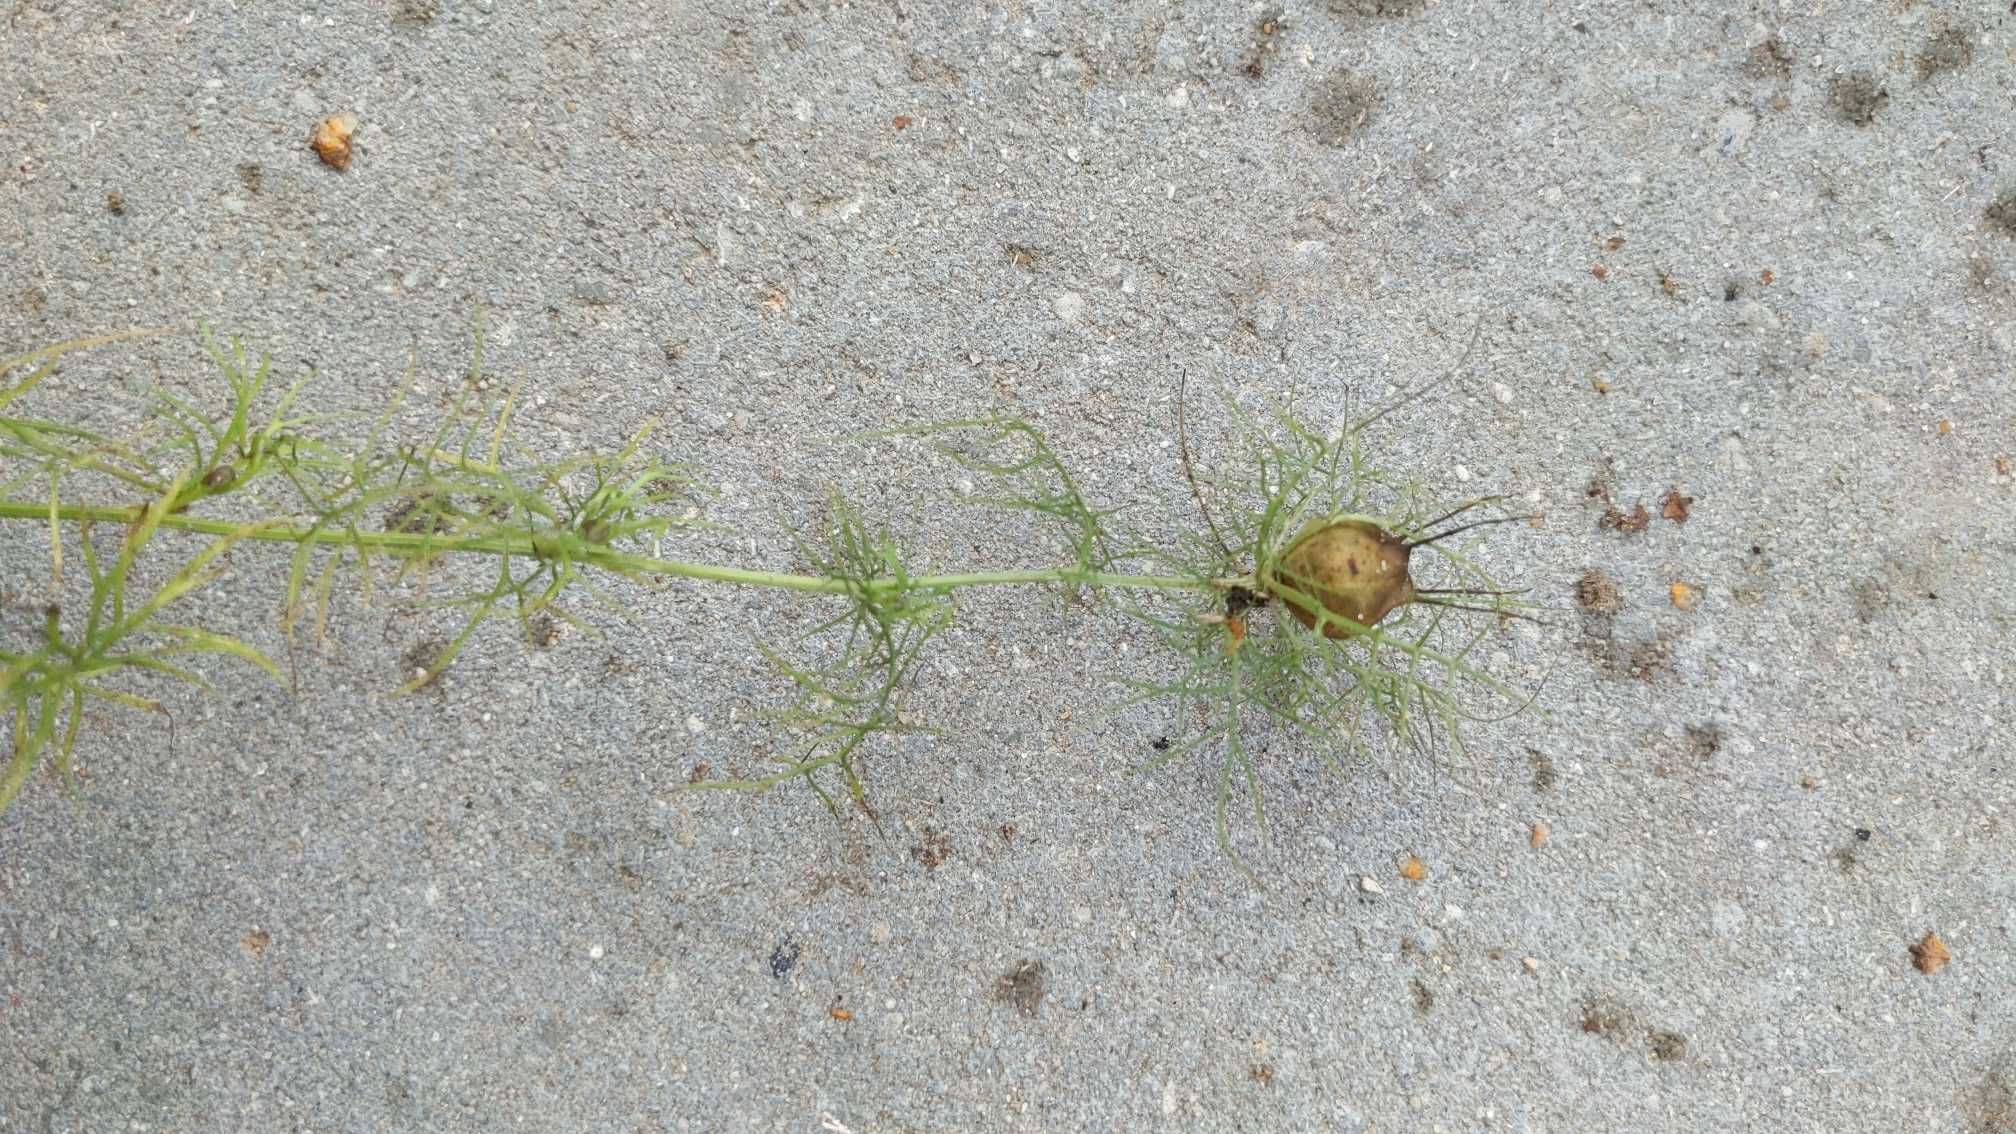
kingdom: Plantae
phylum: Tracheophyta
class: Magnoliopsida
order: Ranunculales
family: Ranunculaceae
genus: Nigella
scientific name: Nigella damascena
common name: Jomfru i det grønne
